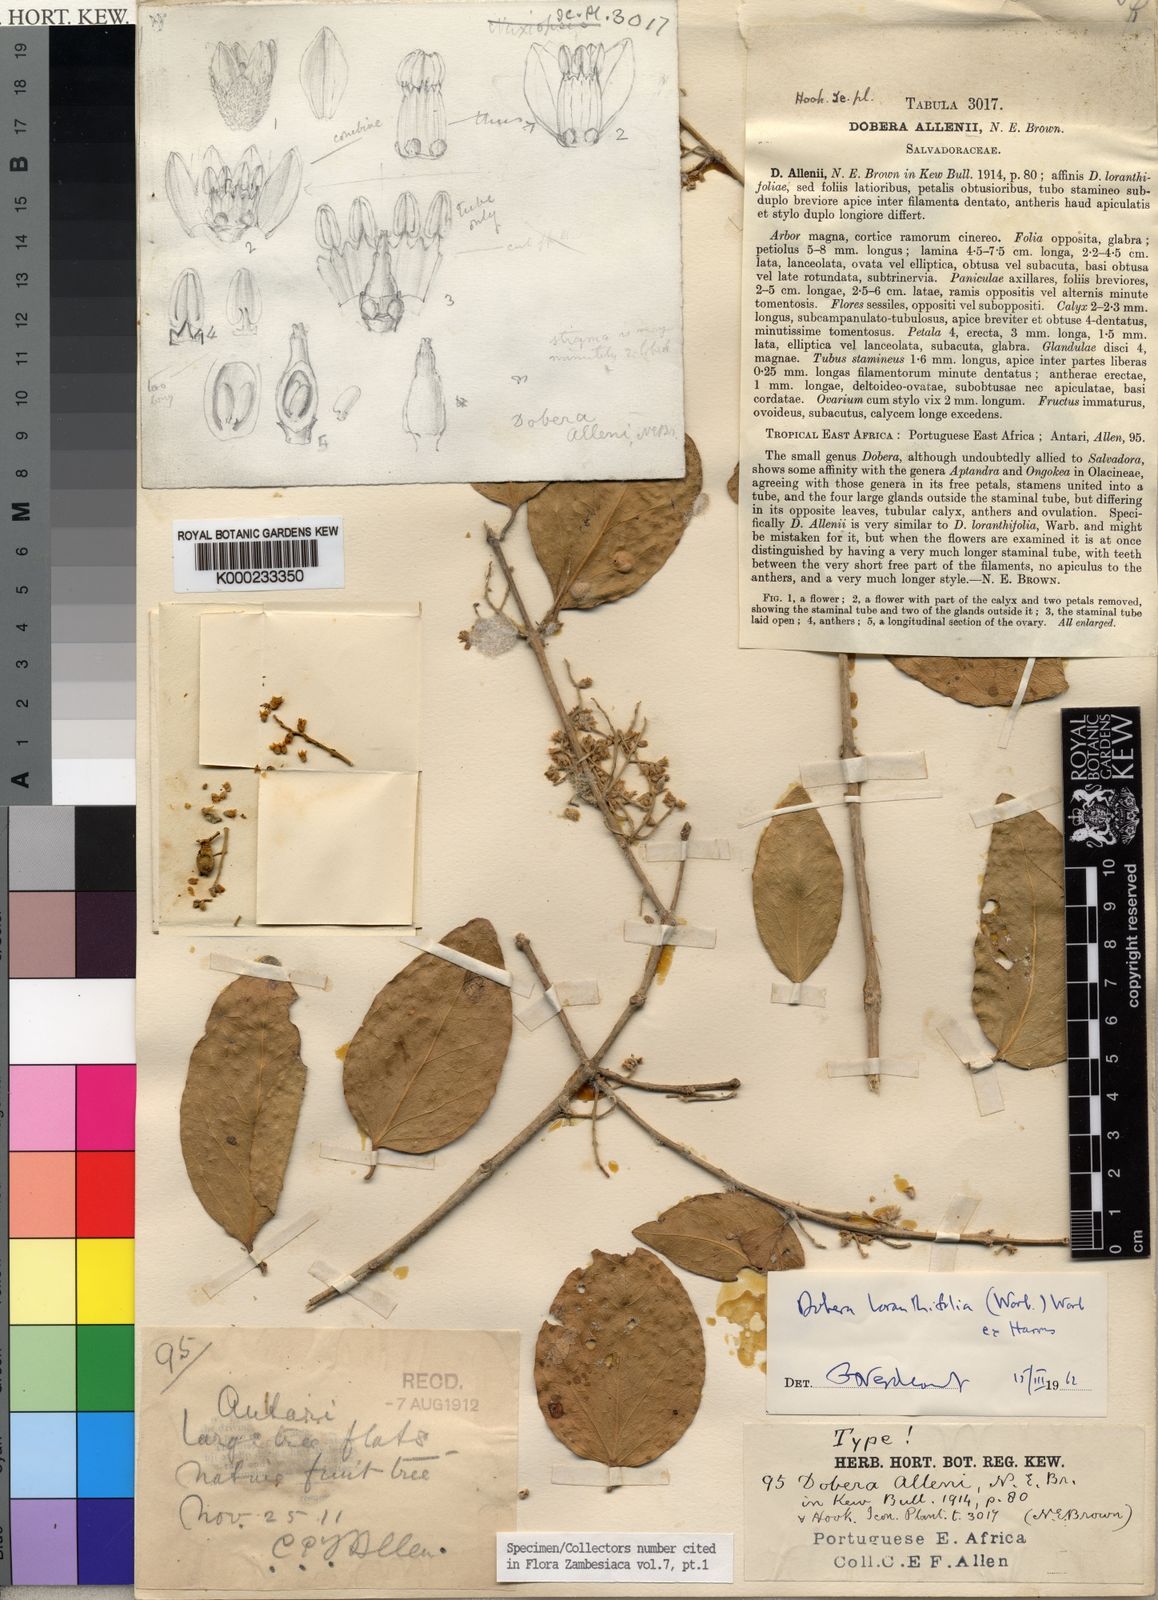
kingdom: Plantae
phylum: Tracheophyta
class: Magnoliopsida
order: Brassicales
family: Salvadoraceae
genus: Dobera
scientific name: Dobera loranthifolia
